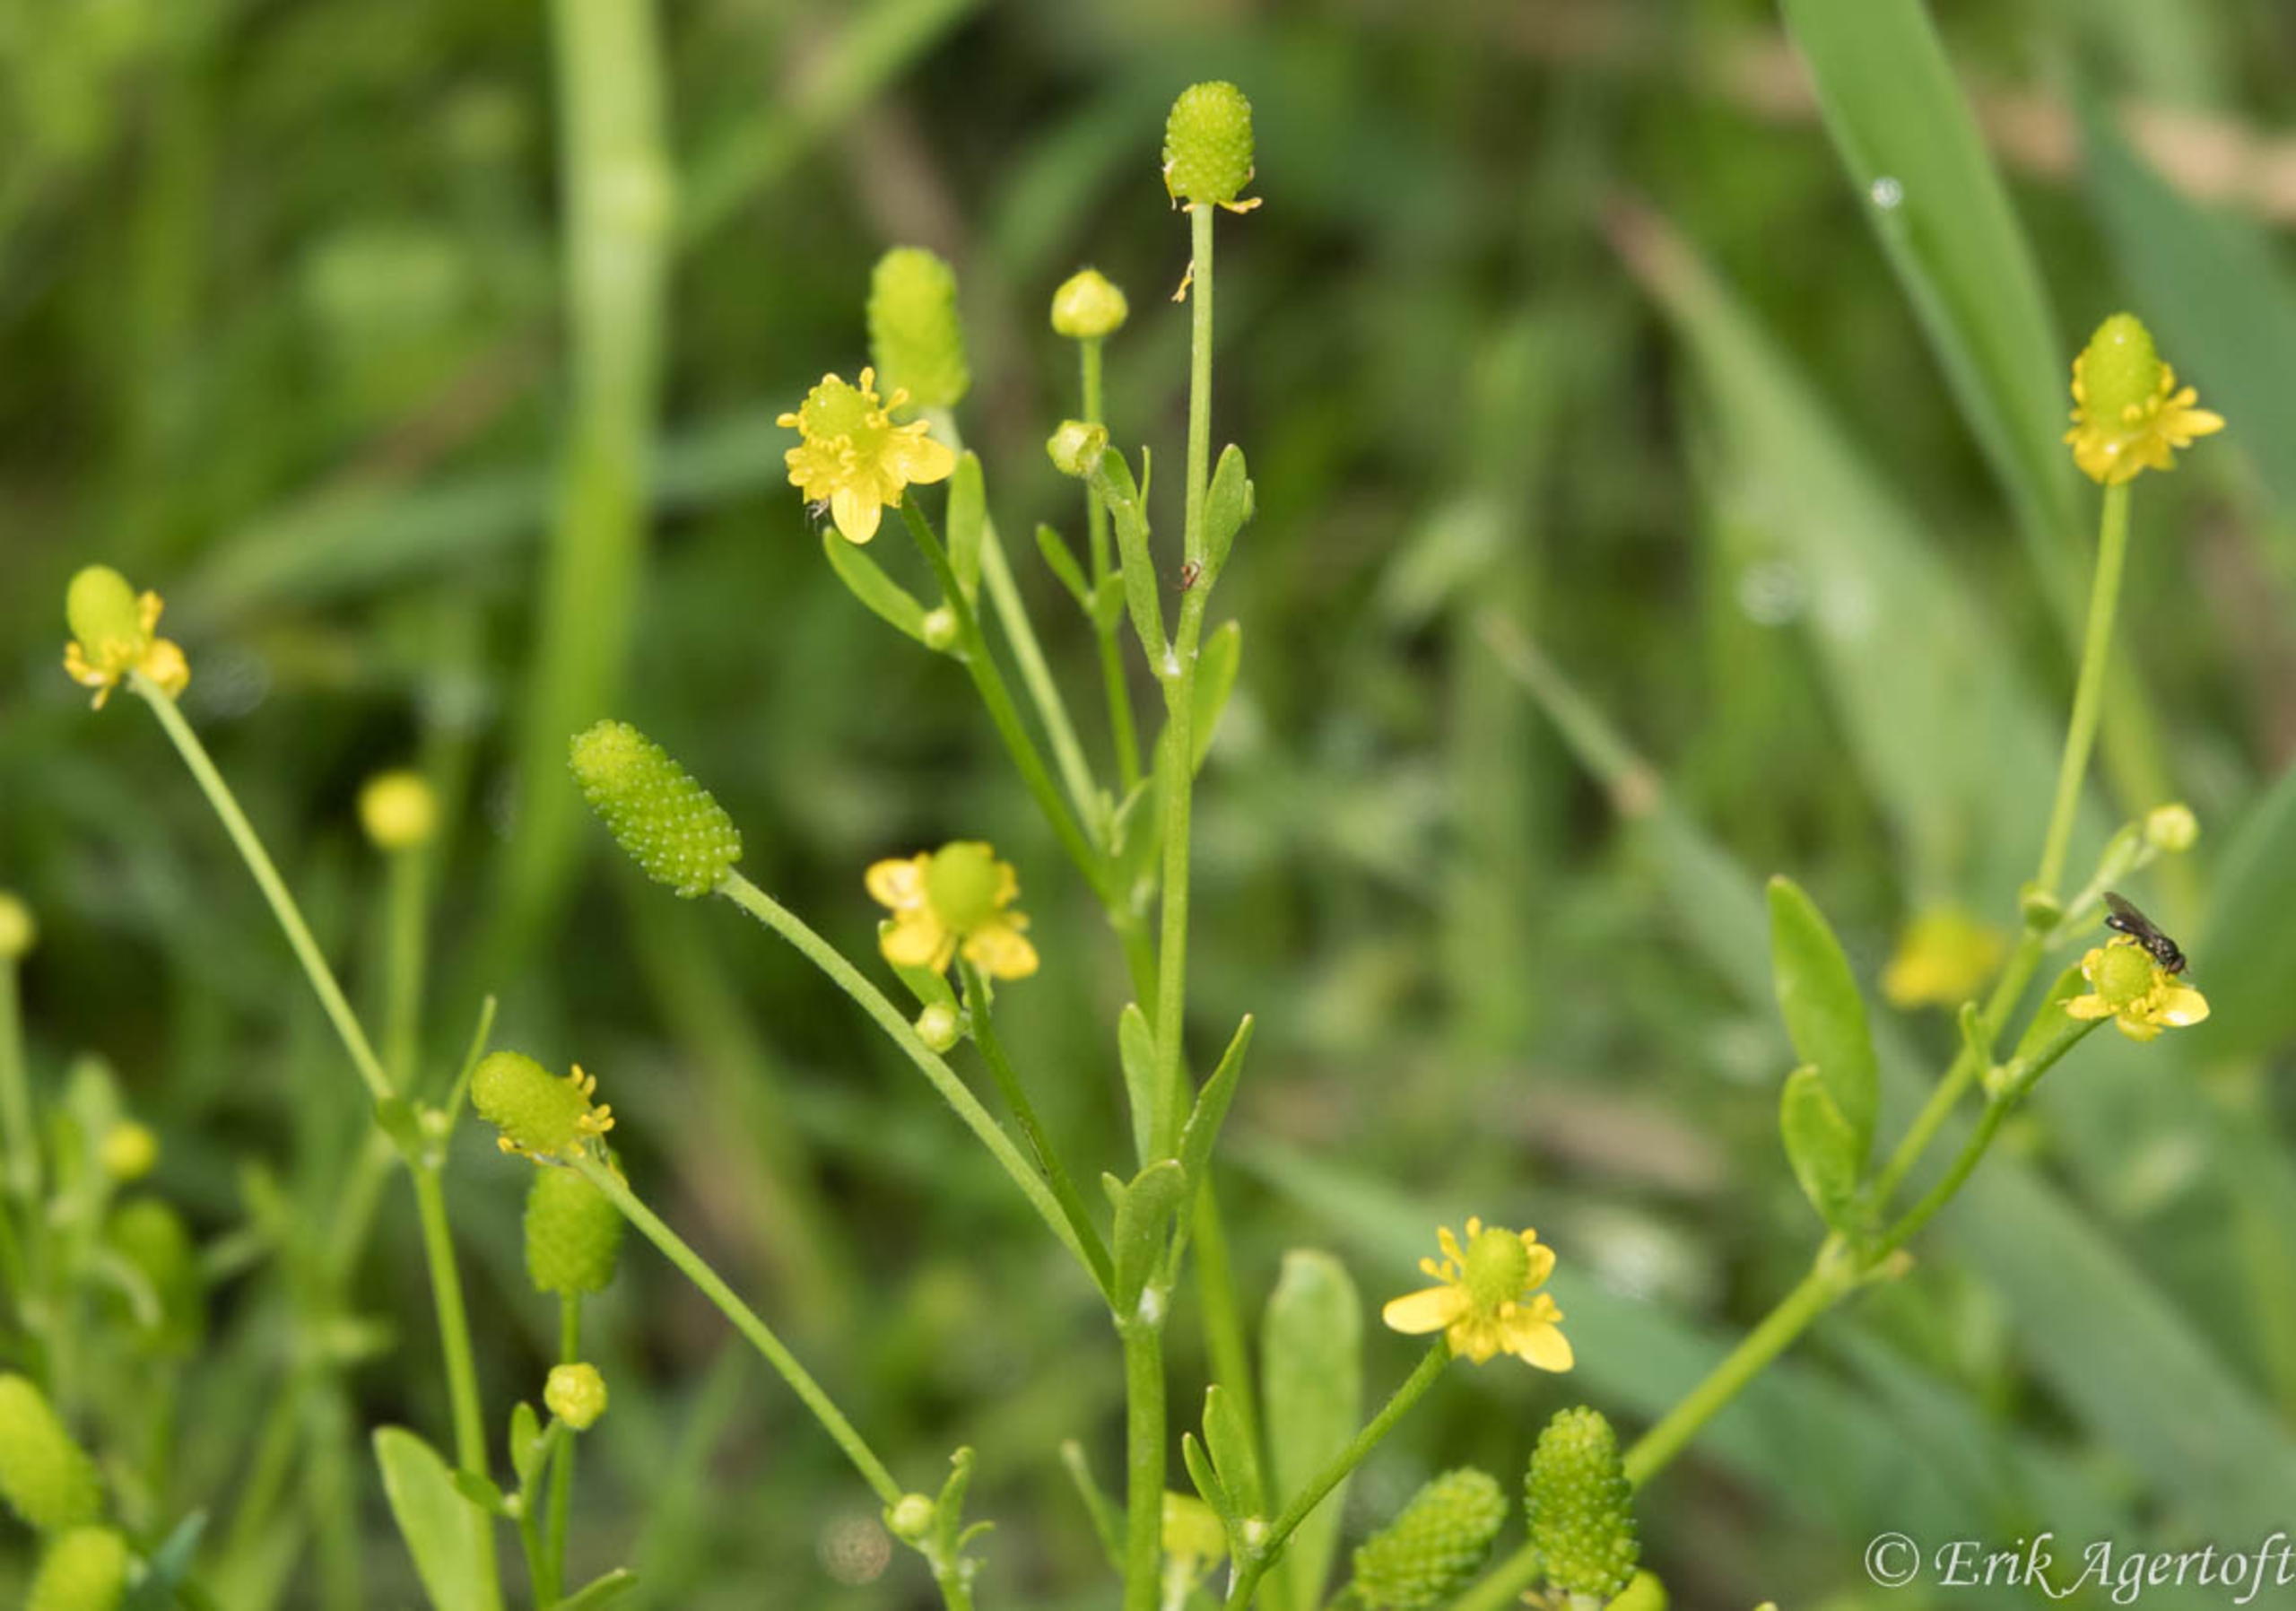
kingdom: Plantae
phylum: Tracheophyta
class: Magnoliopsida
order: Ranunculales
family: Ranunculaceae
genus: Ranunculus
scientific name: Ranunculus sceleratus
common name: Tigger-ranunkel
